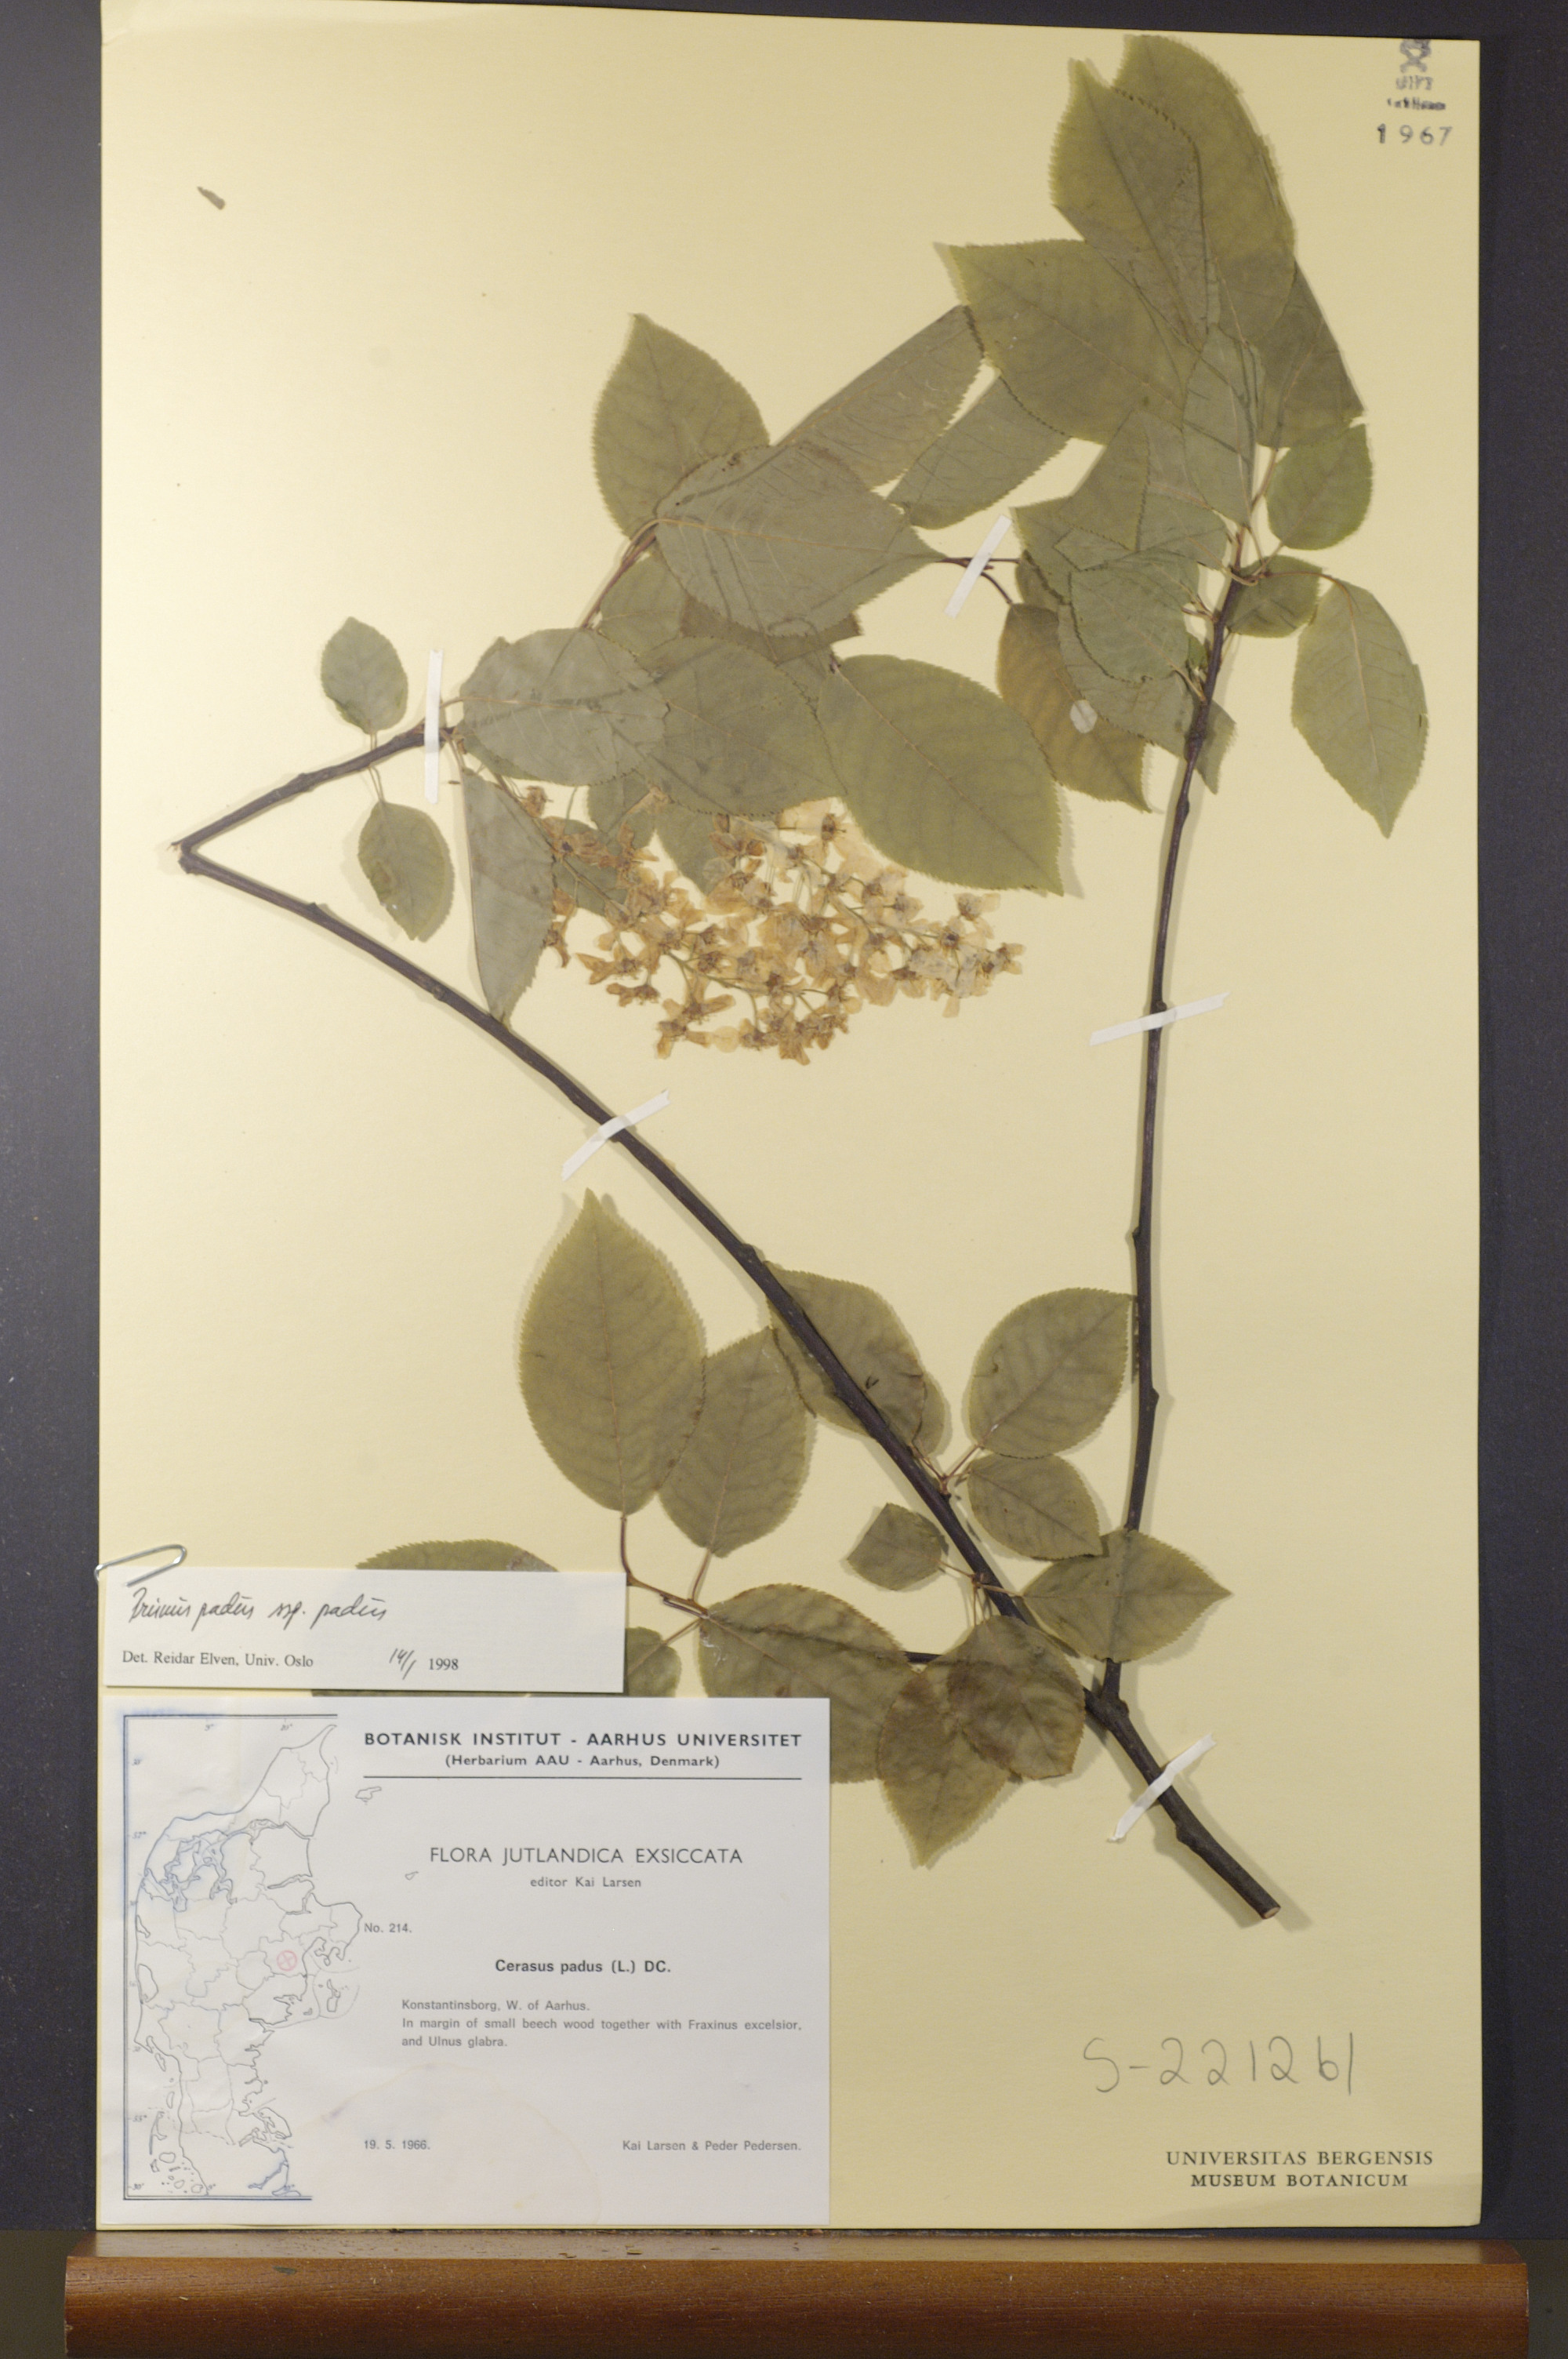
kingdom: Plantae
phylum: Tracheophyta
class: Magnoliopsida
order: Rosales
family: Rosaceae
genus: Prunus
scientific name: Prunus padus
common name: Bird cherry
